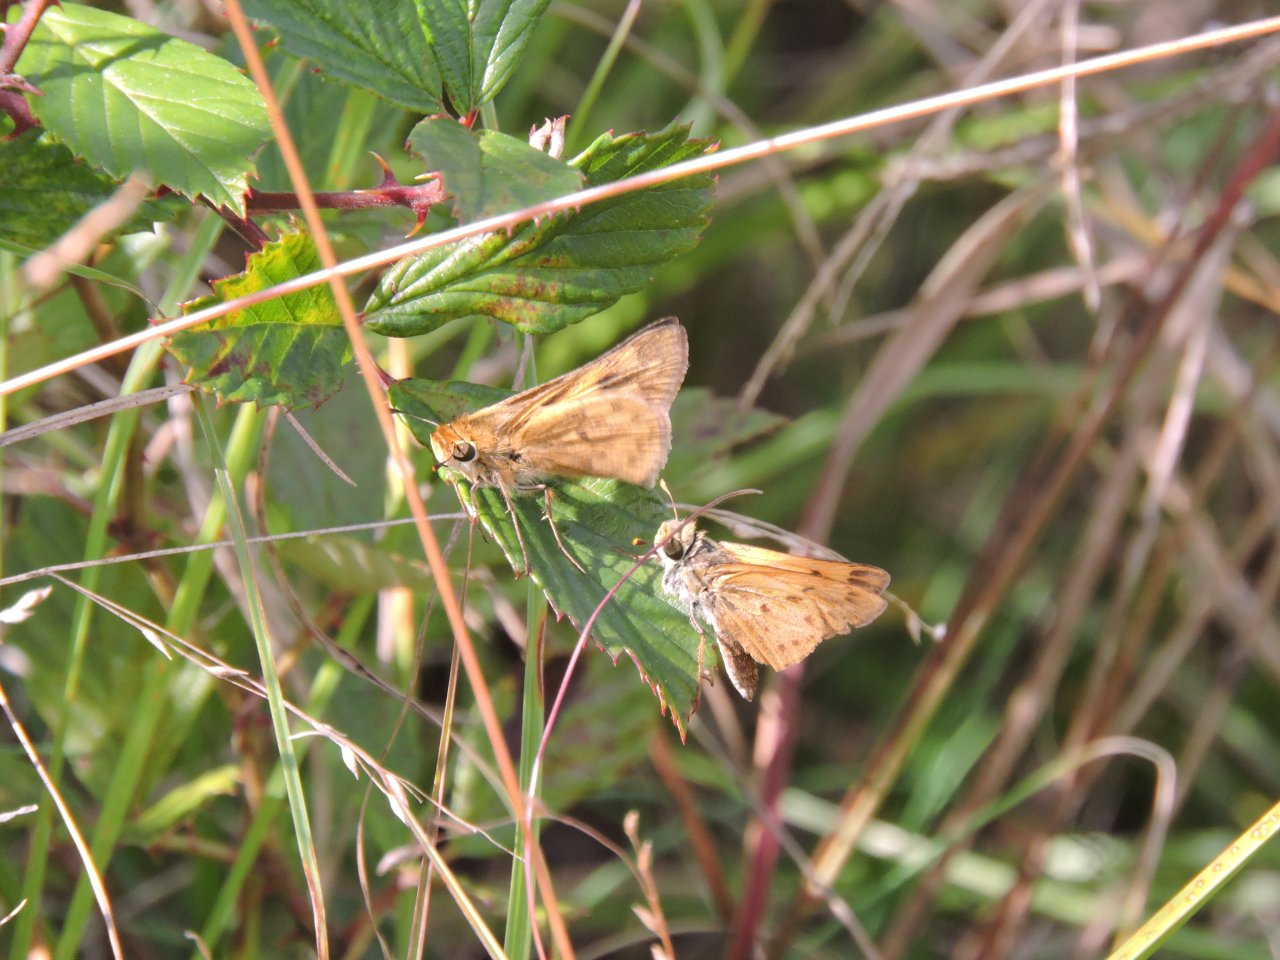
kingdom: Animalia
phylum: Arthropoda
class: Insecta
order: Lepidoptera
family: Hesperiidae
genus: Hylephila
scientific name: Hylephila phyleus
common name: Fiery Skipper
